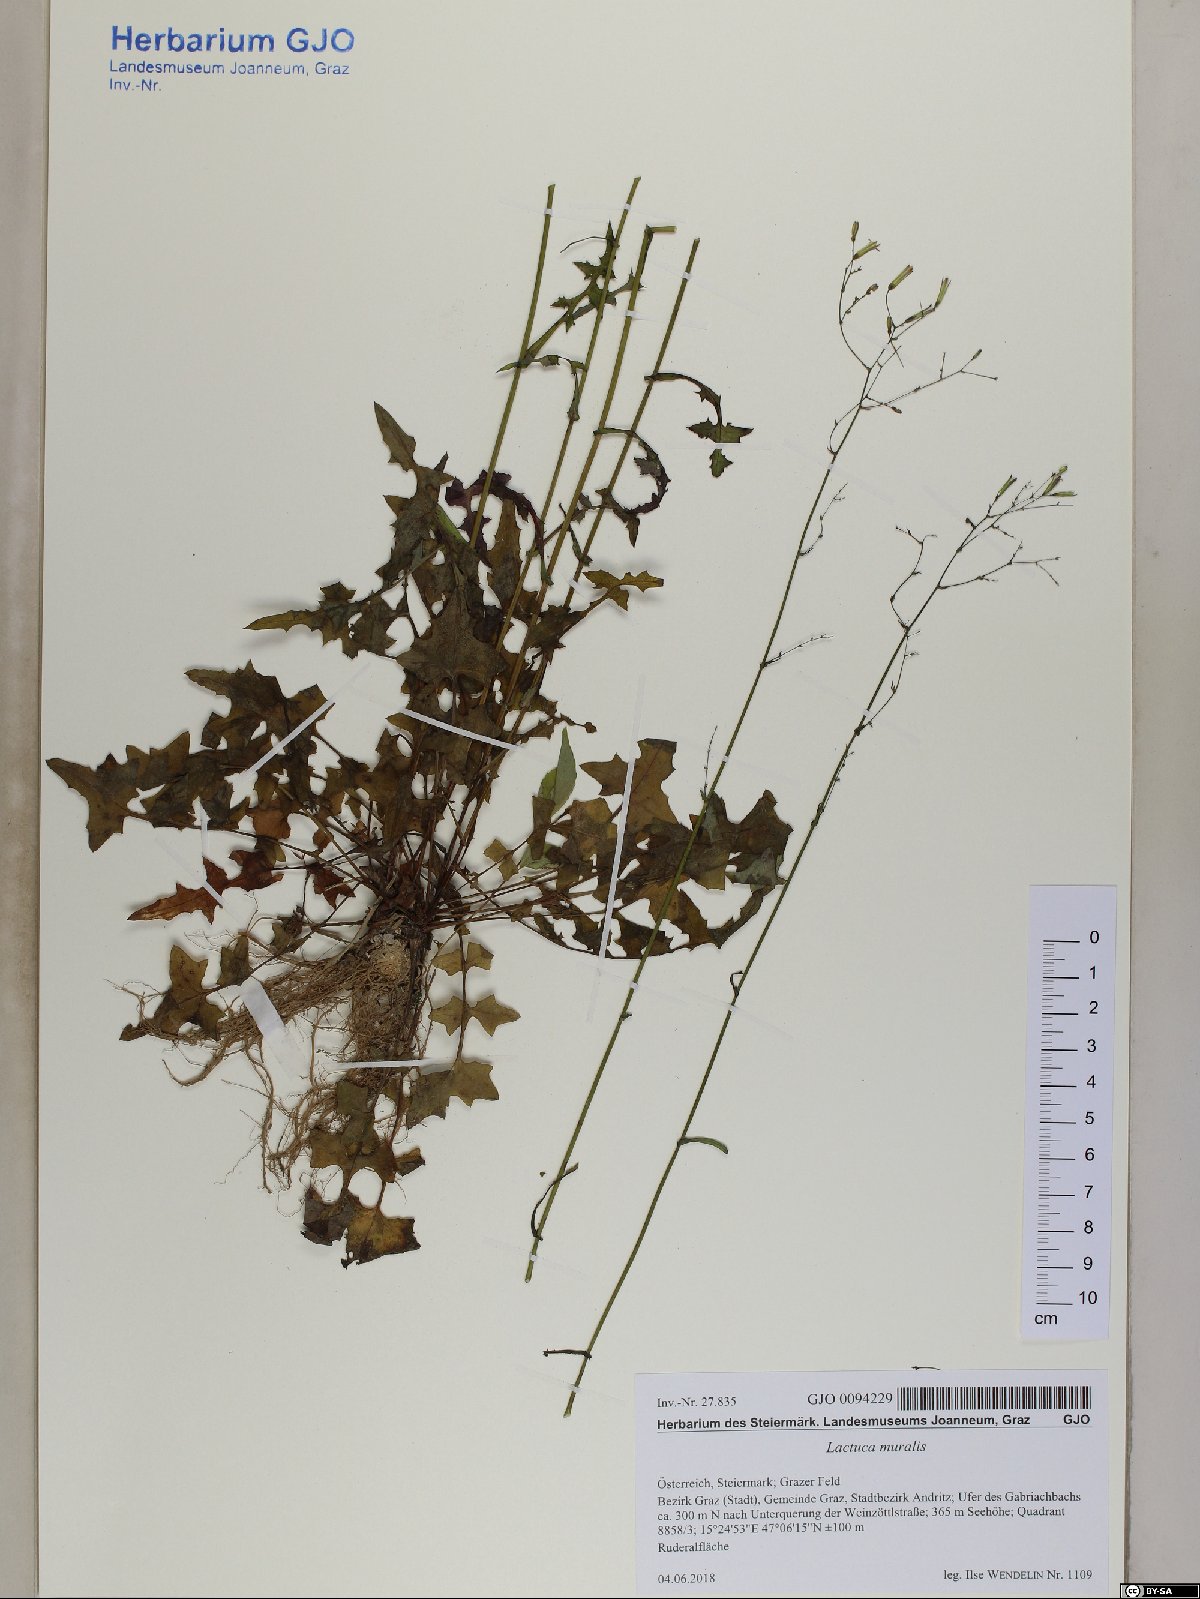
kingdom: Plantae
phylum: Tracheophyta
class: Magnoliopsida
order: Asterales
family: Asteraceae
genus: Mycelis
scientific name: Mycelis muralis
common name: Wall lettuce
